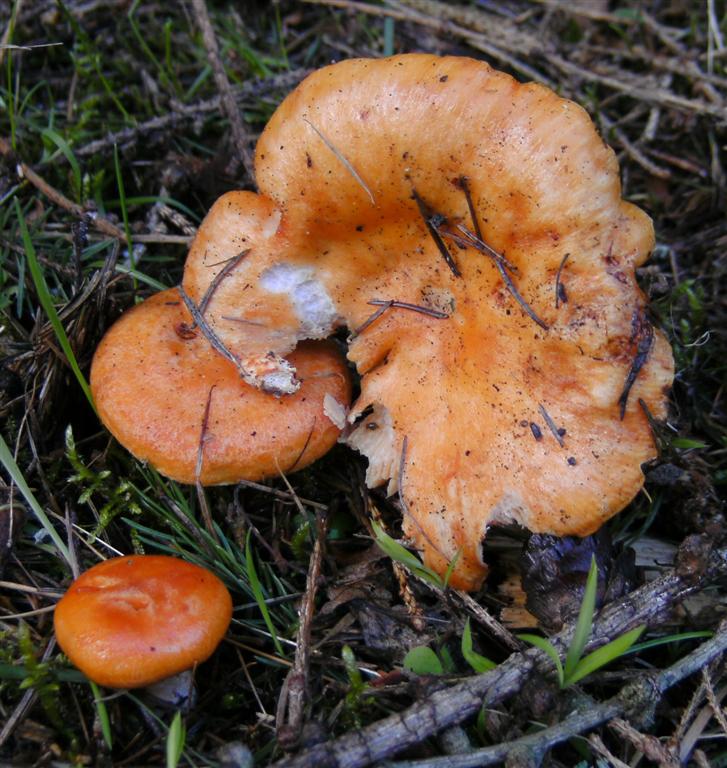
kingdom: Fungi
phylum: Basidiomycota
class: Agaricomycetes
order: Russulales
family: Russulaceae
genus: Lactarius
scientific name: Lactarius porninsis
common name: lærke-mælkehat
